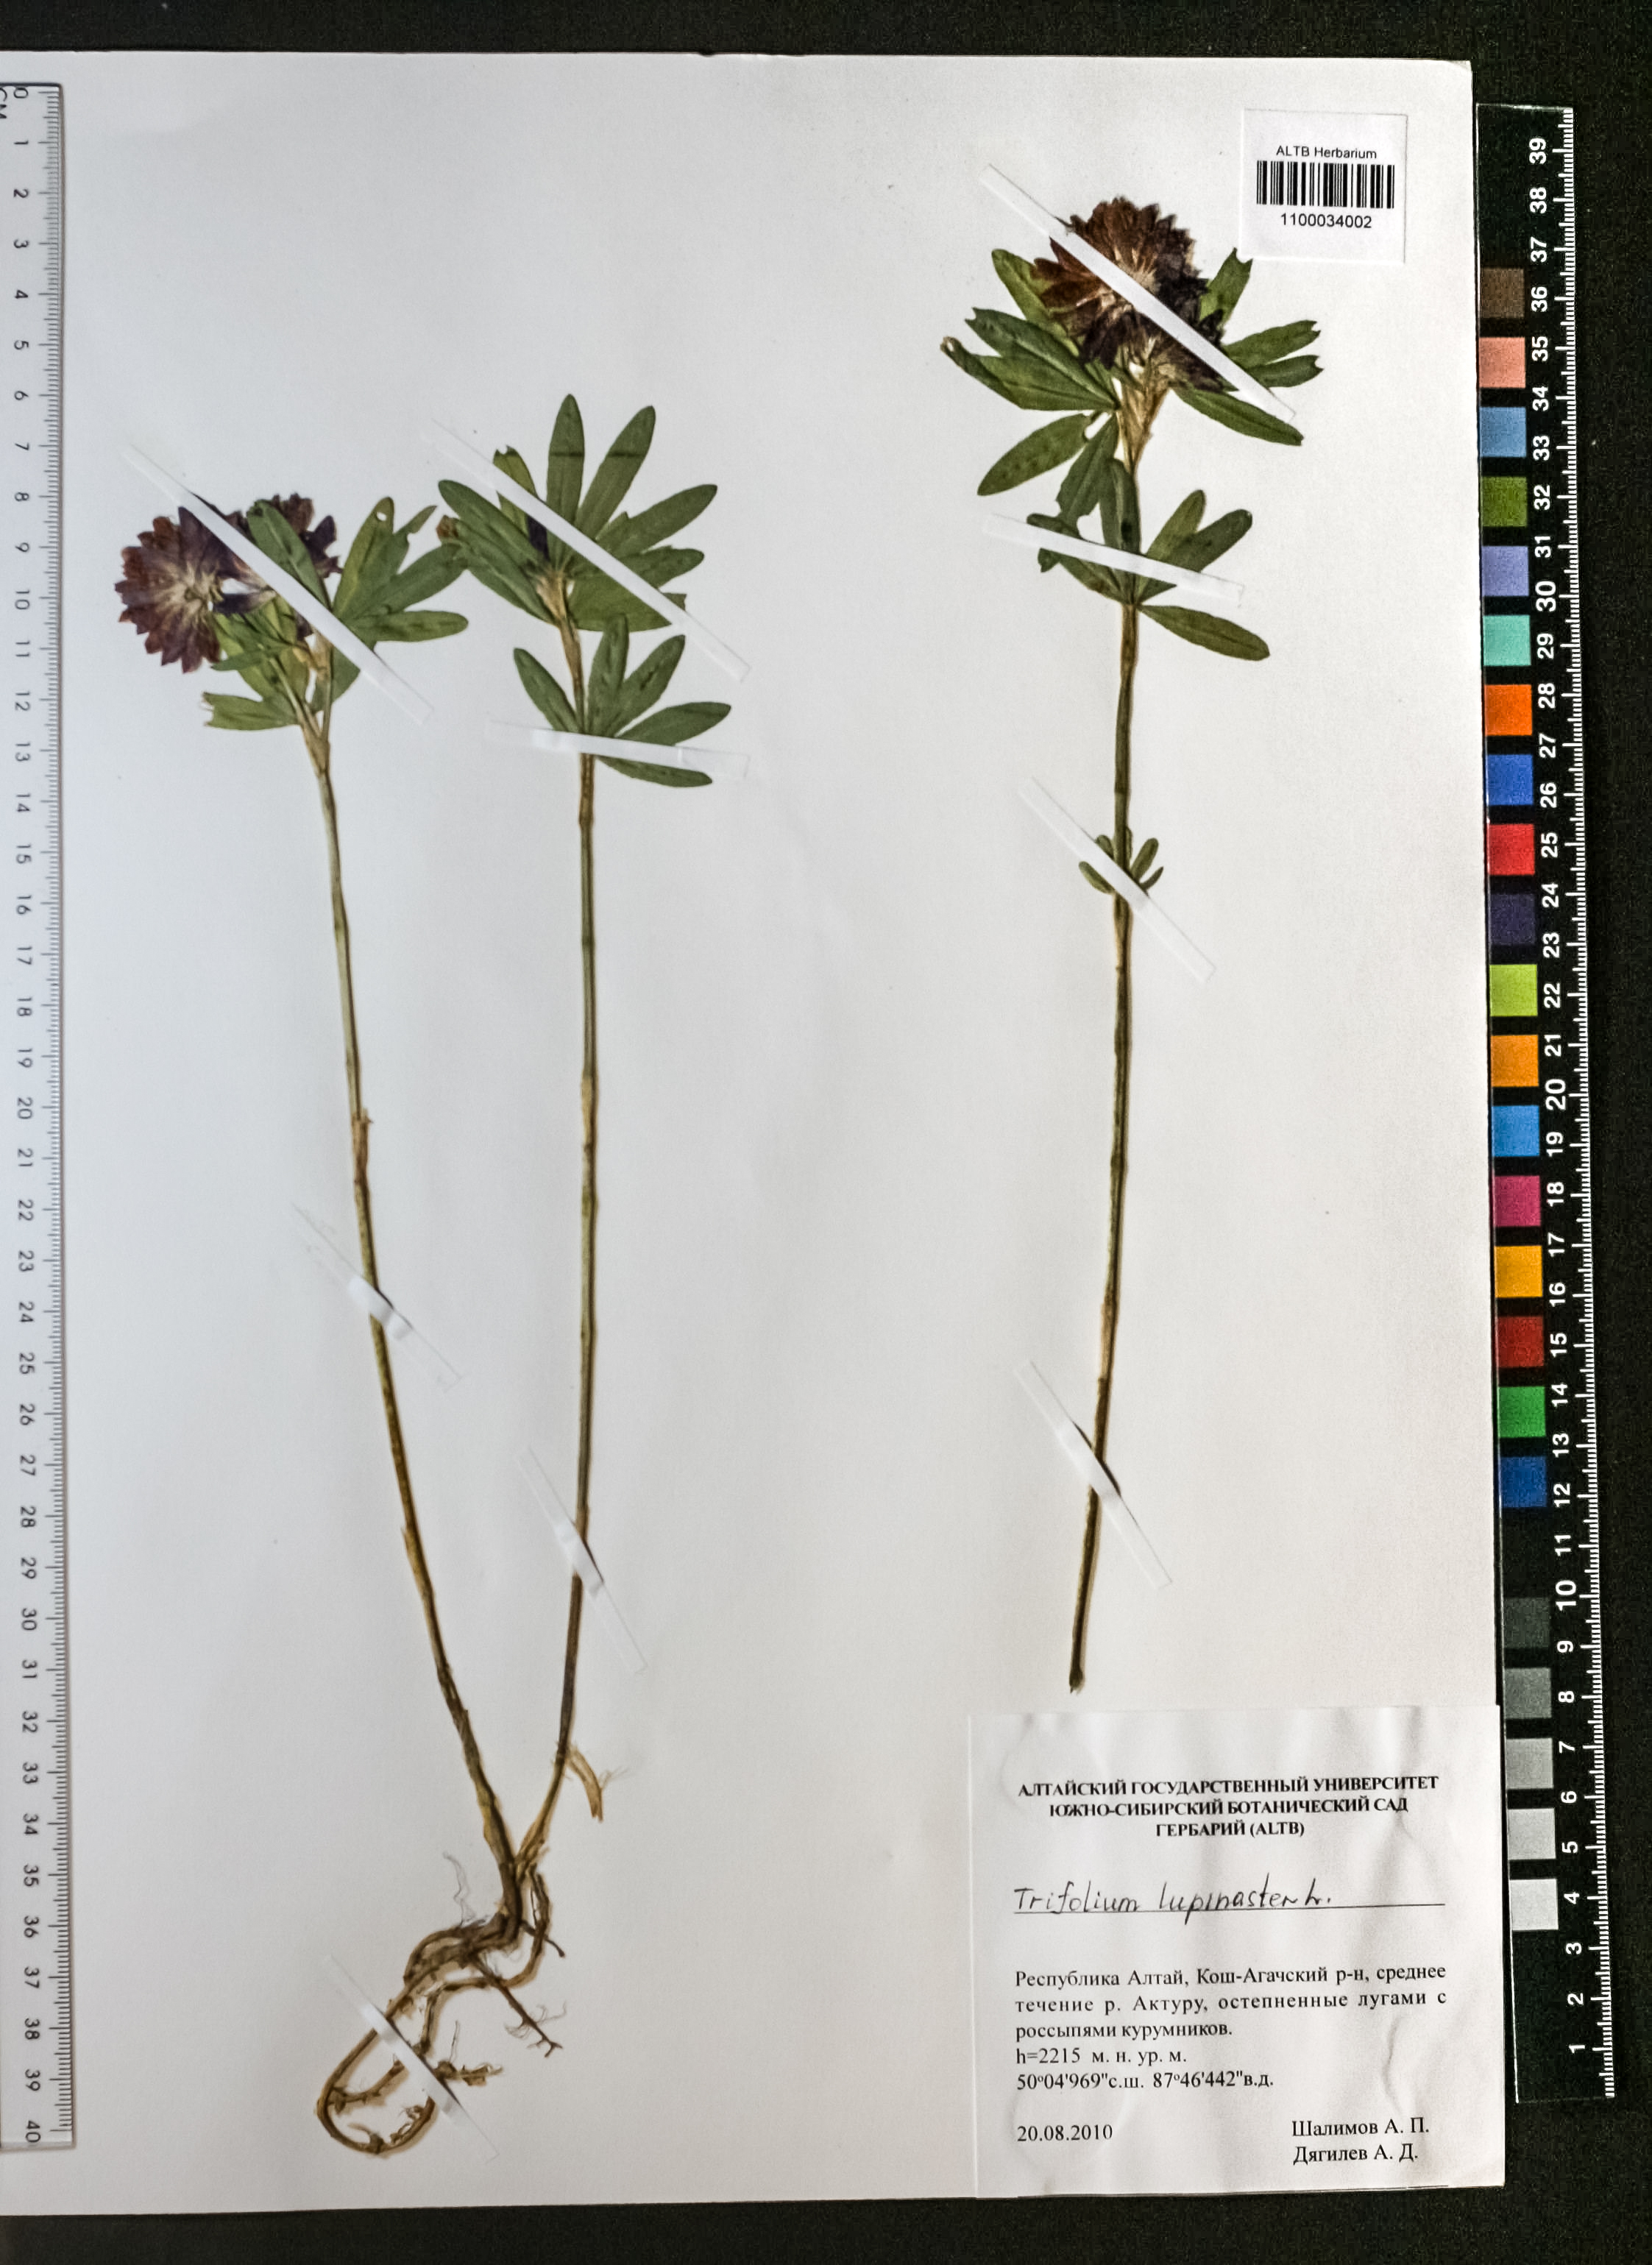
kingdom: Plantae
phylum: Tracheophyta
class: Magnoliopsida
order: Fabales
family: Fabaceae
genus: Trifolium
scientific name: Trifolium lupinaster
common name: Lupine clover
